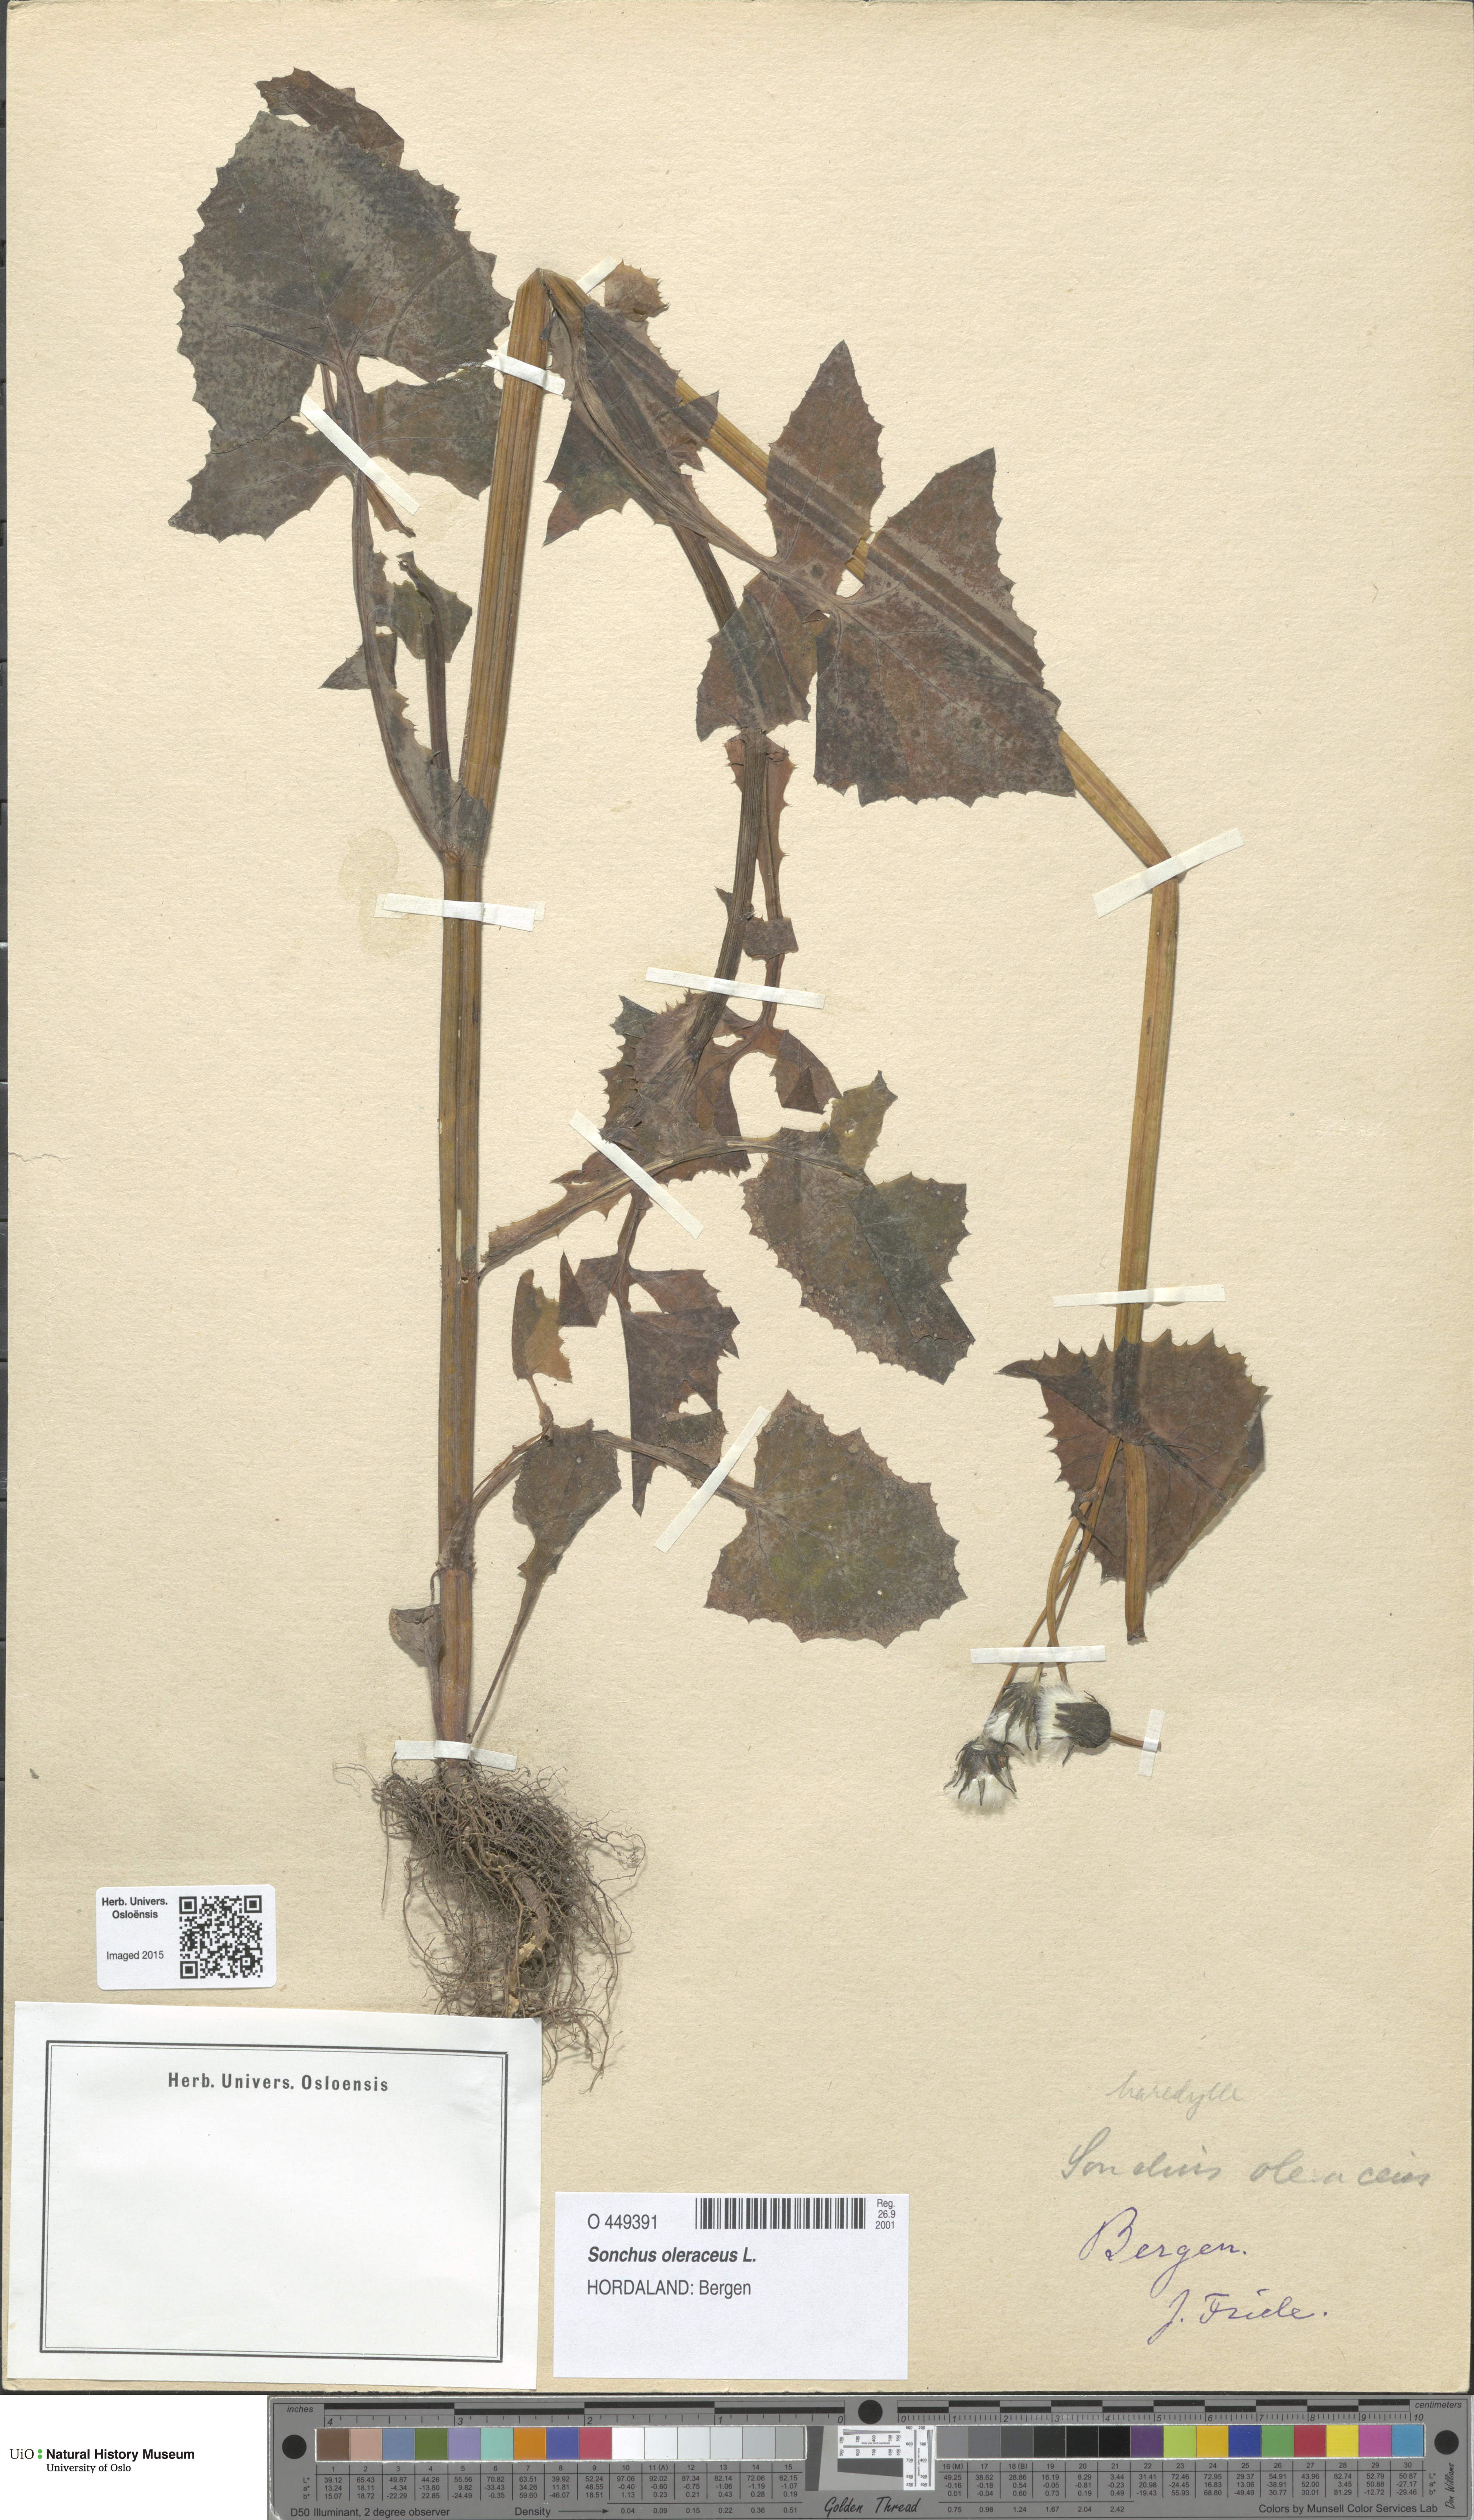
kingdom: Plantae
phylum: Tracheophyta
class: Magnoliopsida
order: Asterales
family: Asteraceae
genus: Sonchus
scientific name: Sonchus oleraceus
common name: Common sowthistle
